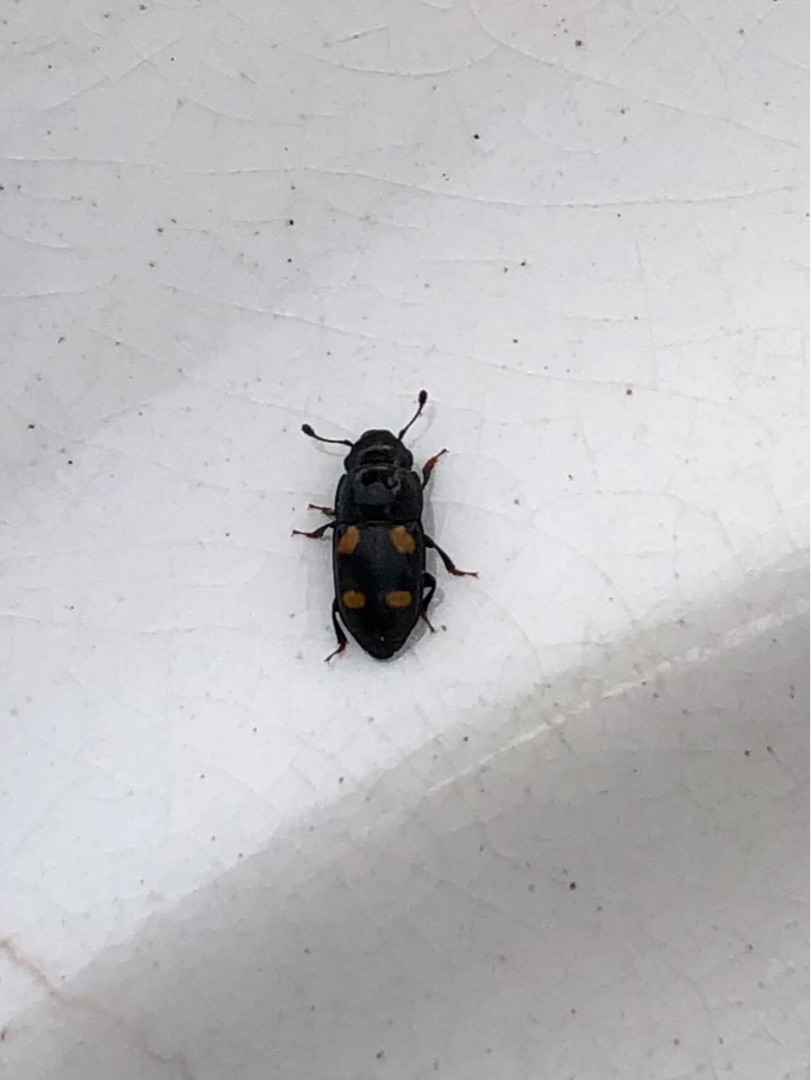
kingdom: Animalia
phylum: Arthropoda
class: Insecta
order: Coleoptera
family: Nitidulidae
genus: Glischrochilus
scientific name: Glischrochilus hortensis
